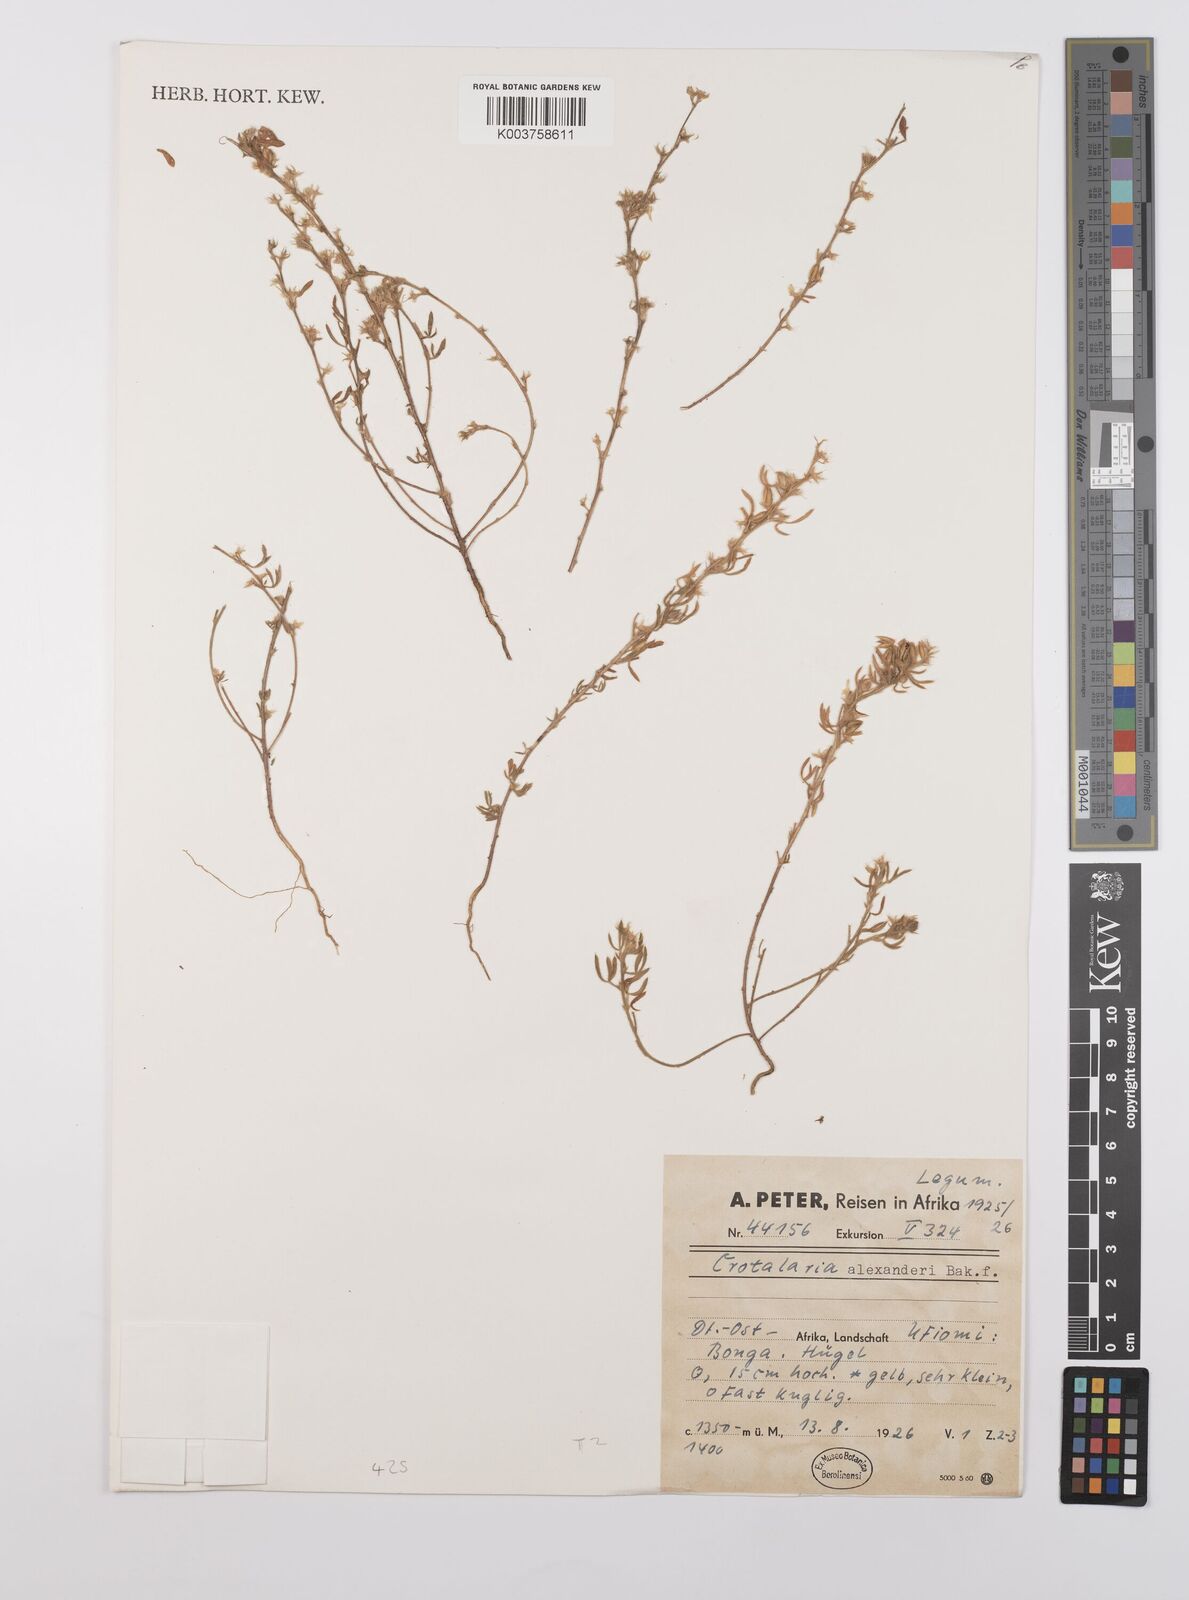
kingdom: Plantae
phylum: Tracheophyta
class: Magnoliopsida
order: Fabales
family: Fabaceae
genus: Crotalaria
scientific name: Crotalaria alexandri
